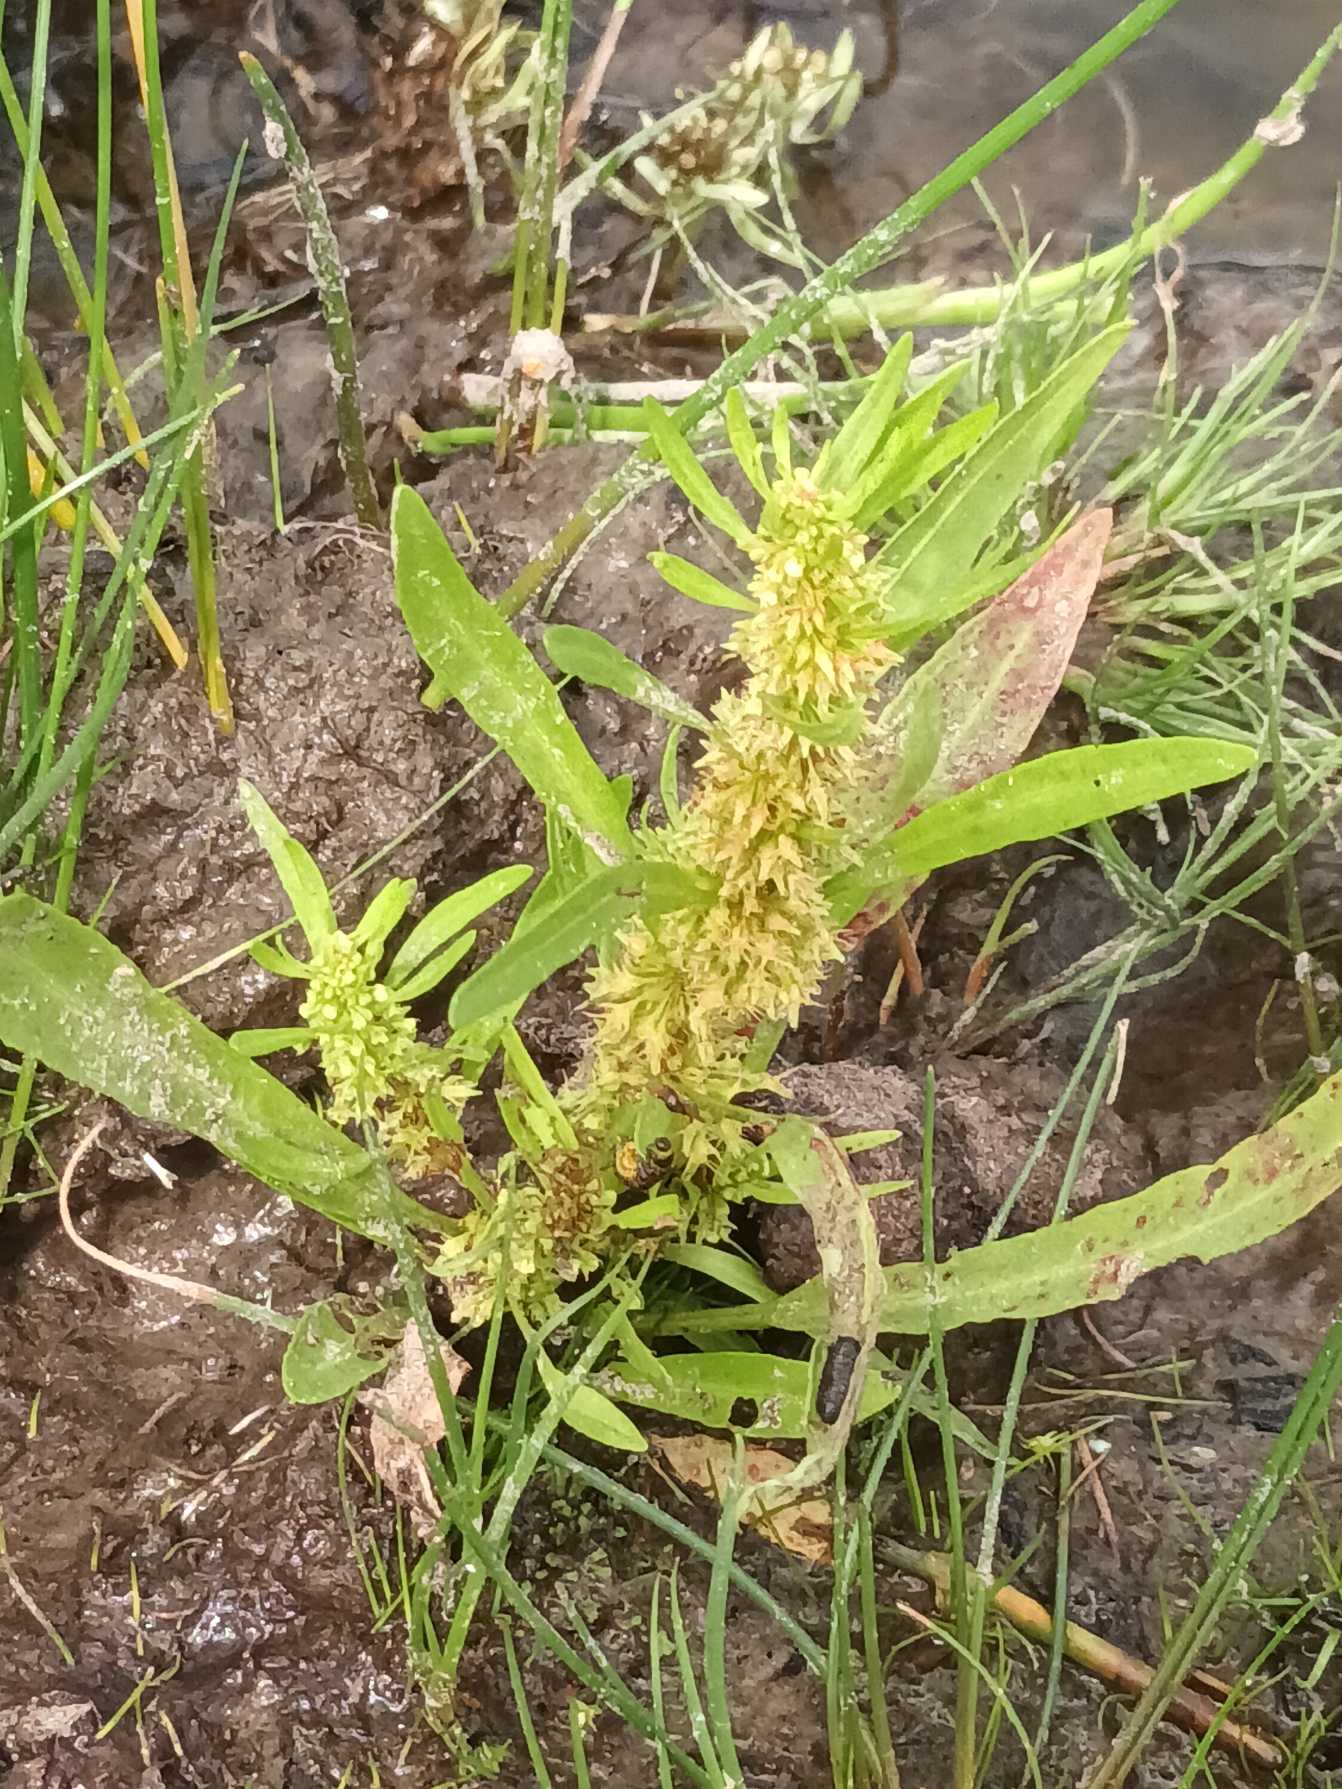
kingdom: Plantae
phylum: Tracheophyta
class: Magnoliopsida
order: Caryophyllales
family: Polygonaceae
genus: Rumex
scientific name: Rumex maritimus
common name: Strand-skræppe
